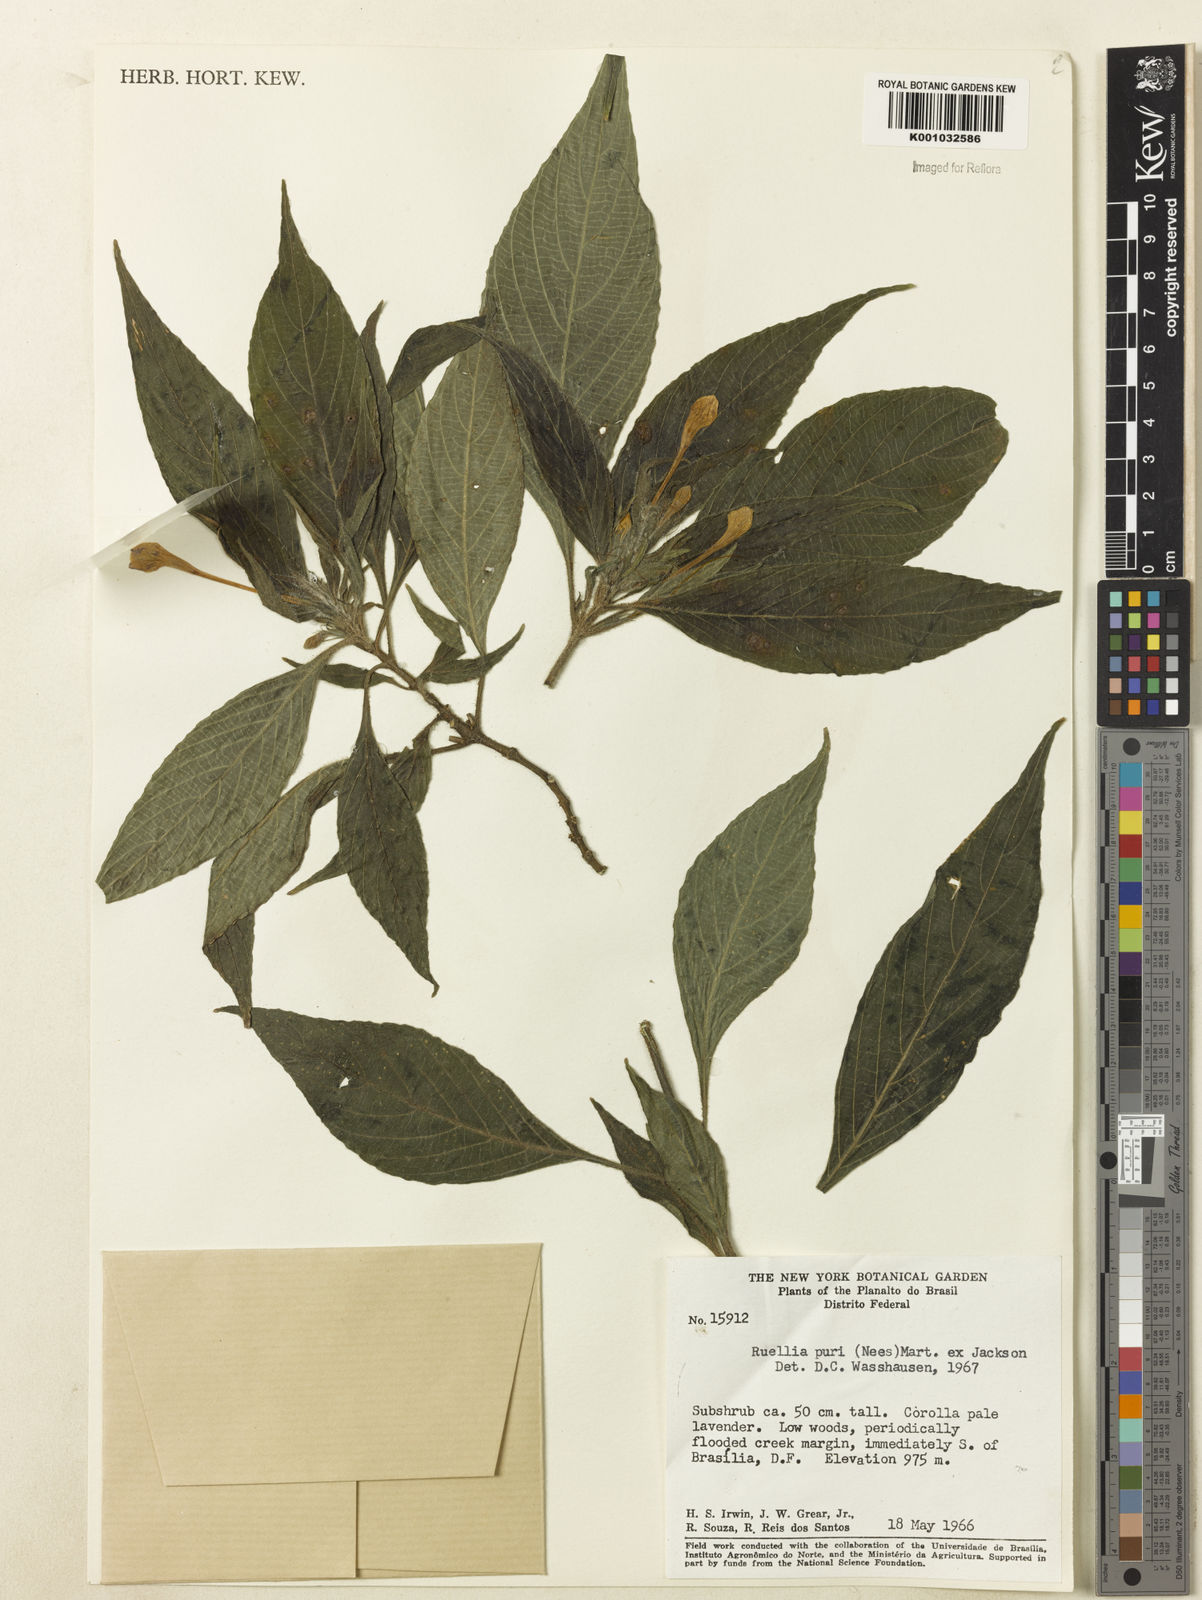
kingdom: Plantae
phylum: Tracheophyta
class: Magnoliopsida
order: Lamiales
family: Acanthaceae
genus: Ruellia
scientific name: Ruellia jussieuoides
